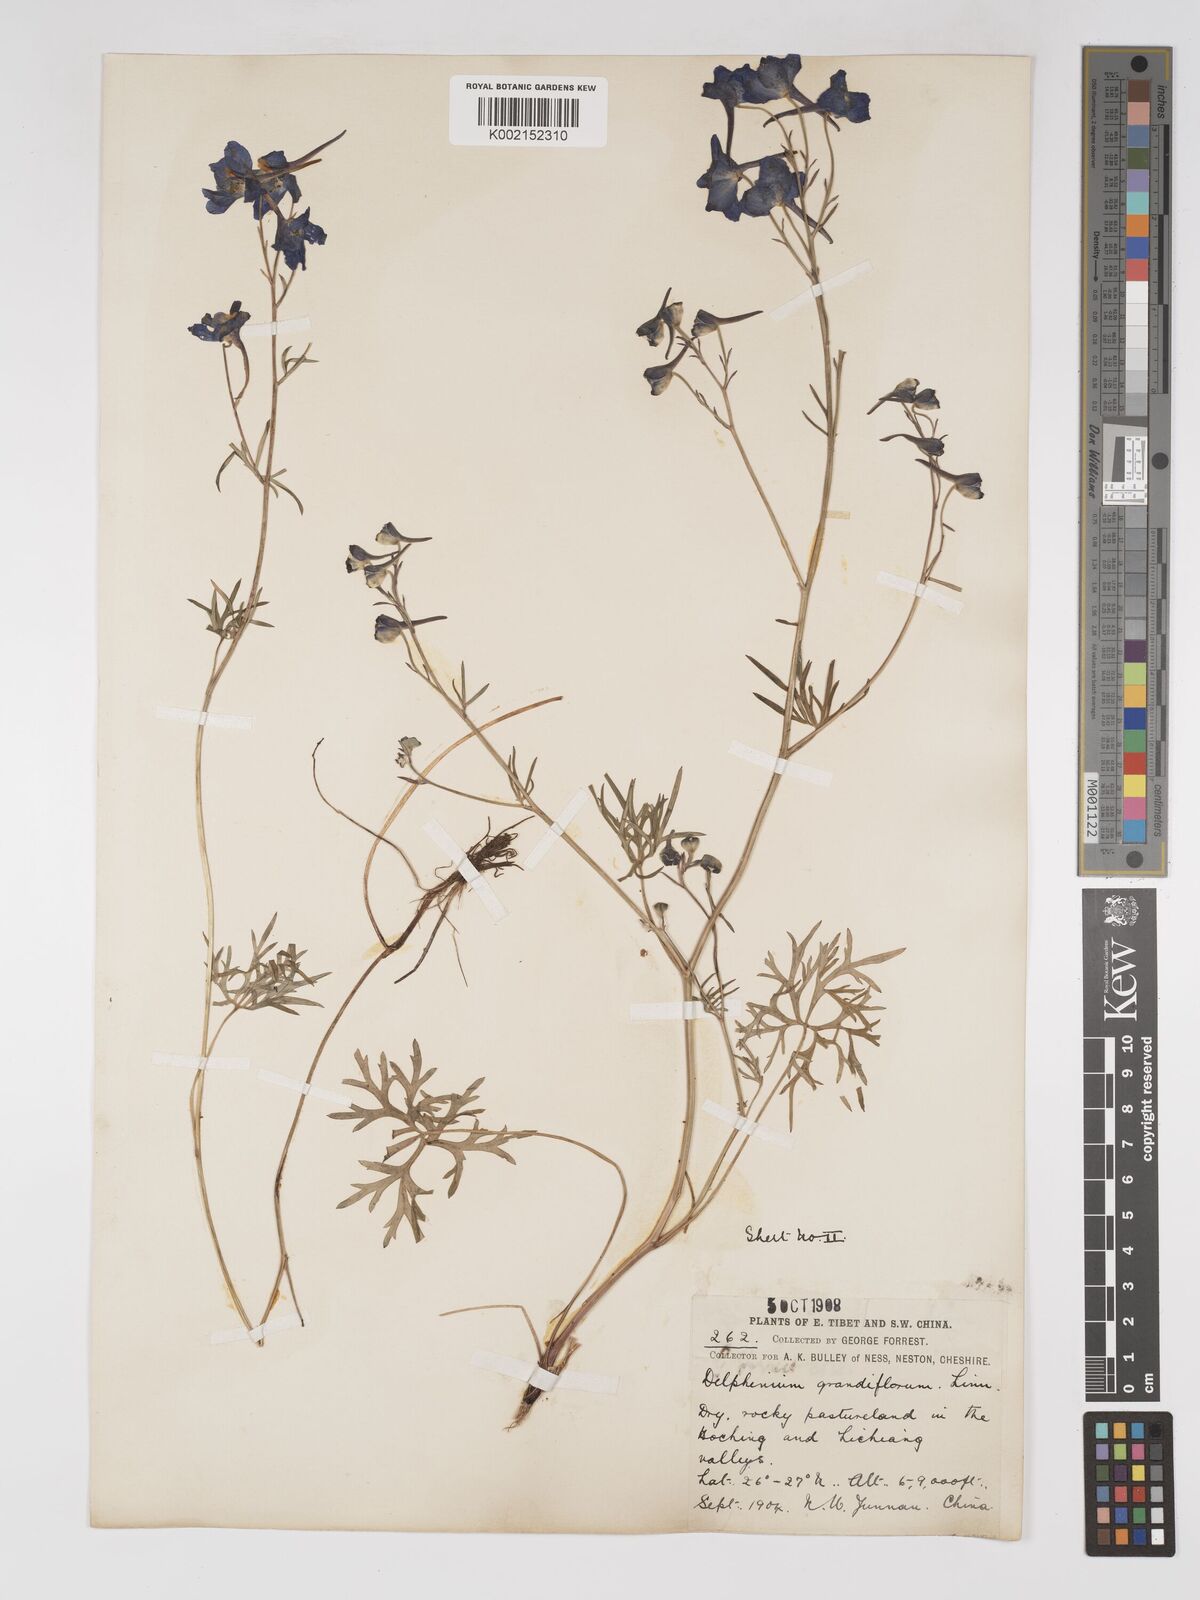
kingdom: Plantae
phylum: Tracheophyta
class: Magnoliopsida
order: Ranunculales
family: Ranunculaceae
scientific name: Ranunculaceae
